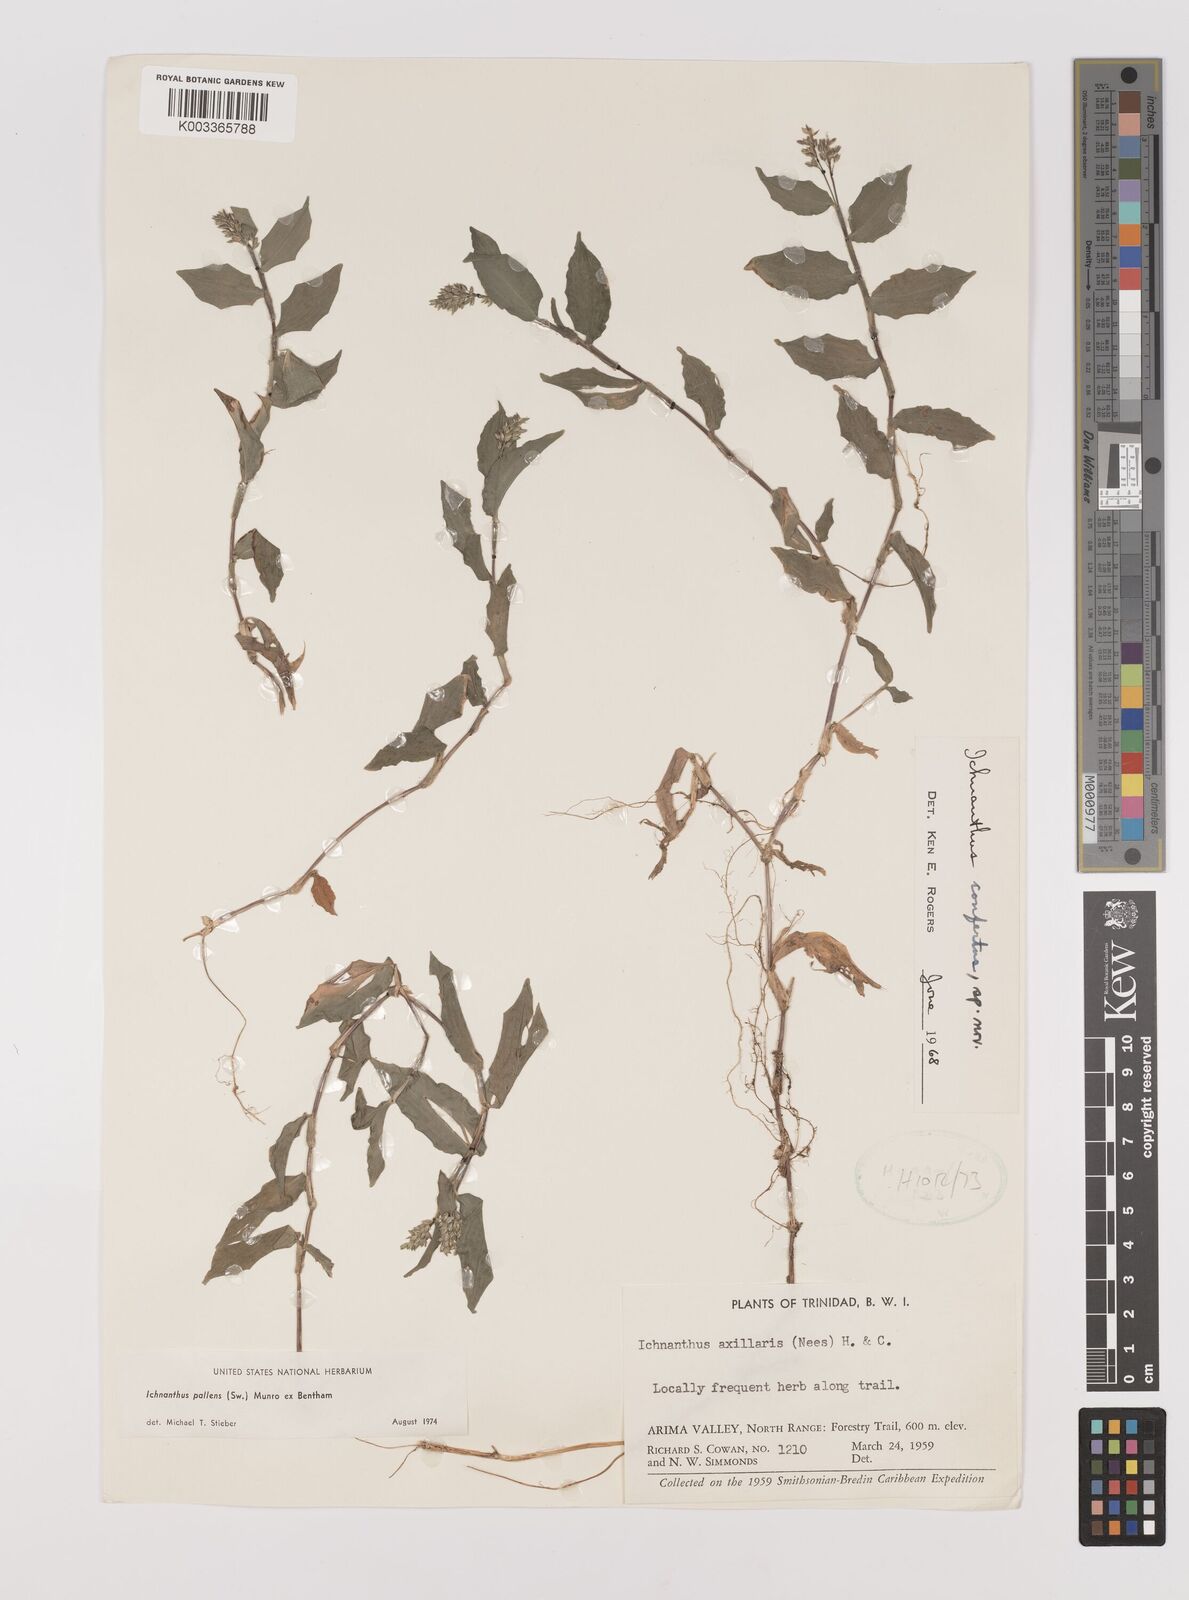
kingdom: Plantae
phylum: Tracheophyta
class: Liliopsida
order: Poales
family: Poaceae
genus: Ichnanthus
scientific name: Ichnanthus pallens
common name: Water grass
